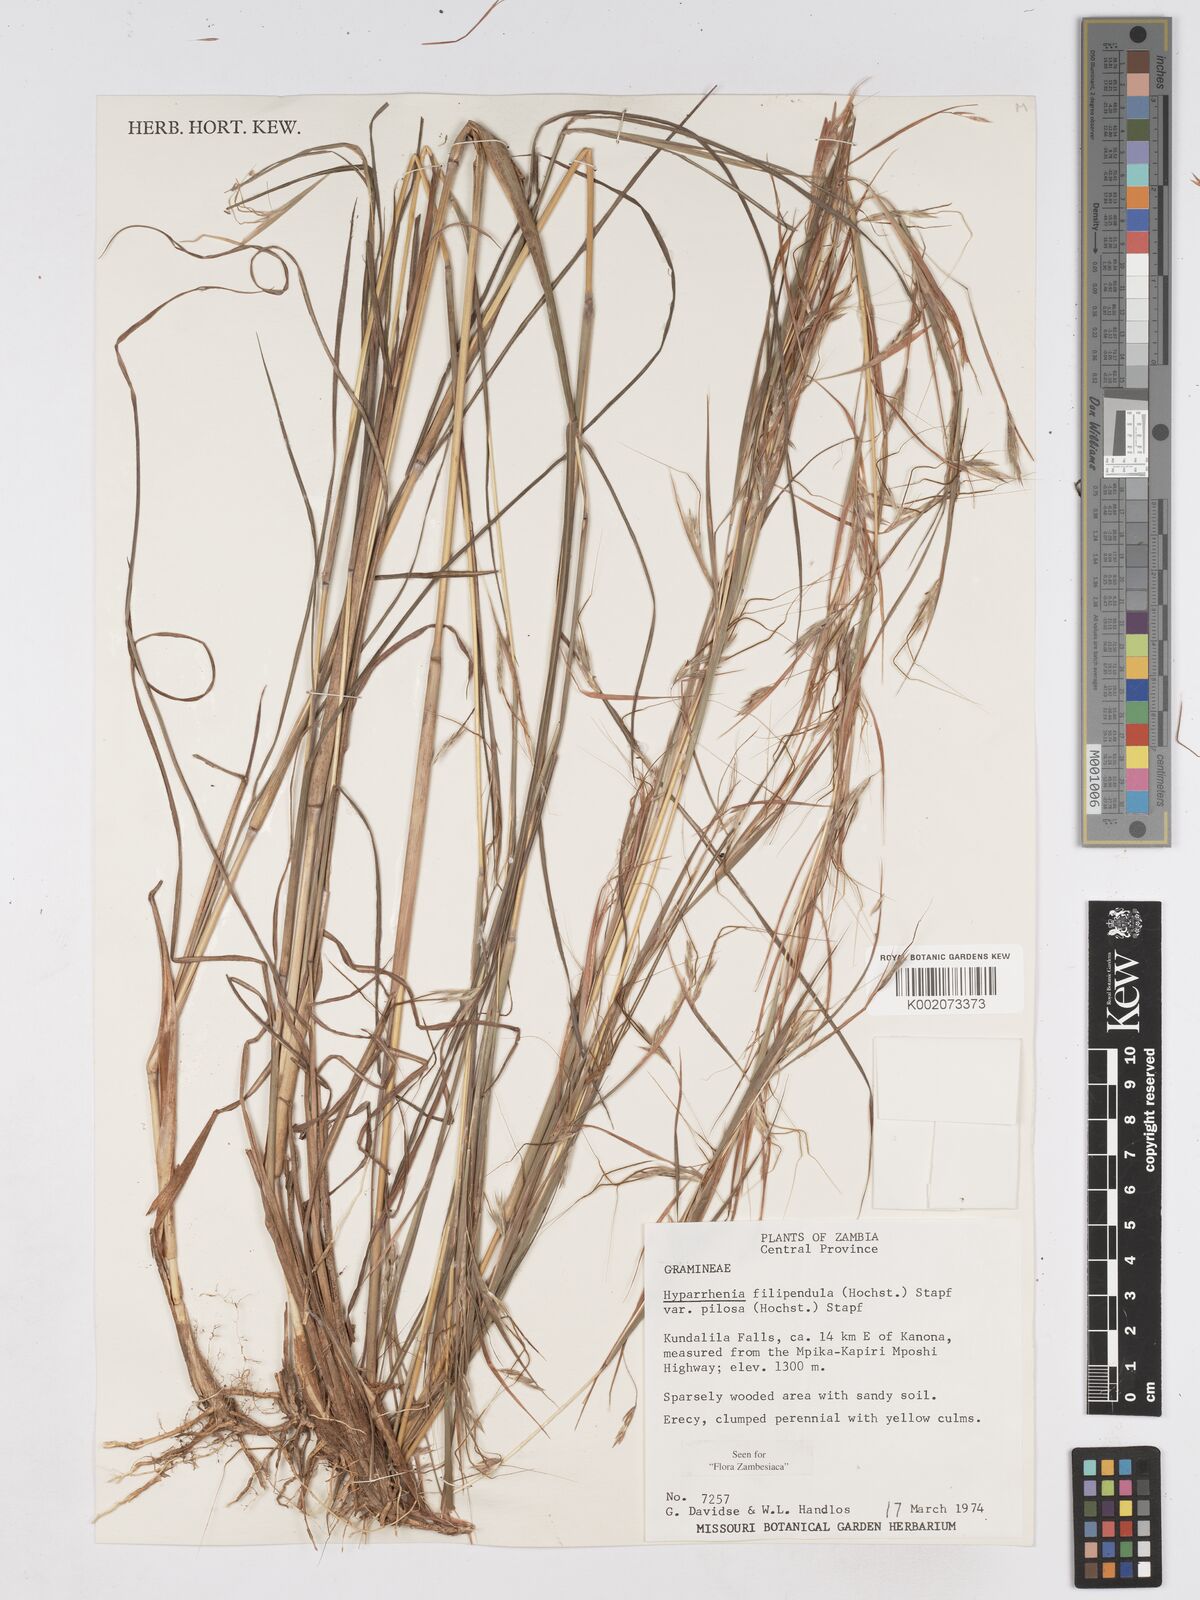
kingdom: Plantae
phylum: Tracheophyta
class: Liliopsida
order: Poales
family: Poaceae
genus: Hyparrhenia
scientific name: Hyparrhenia filipendula
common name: Tambookie grass
